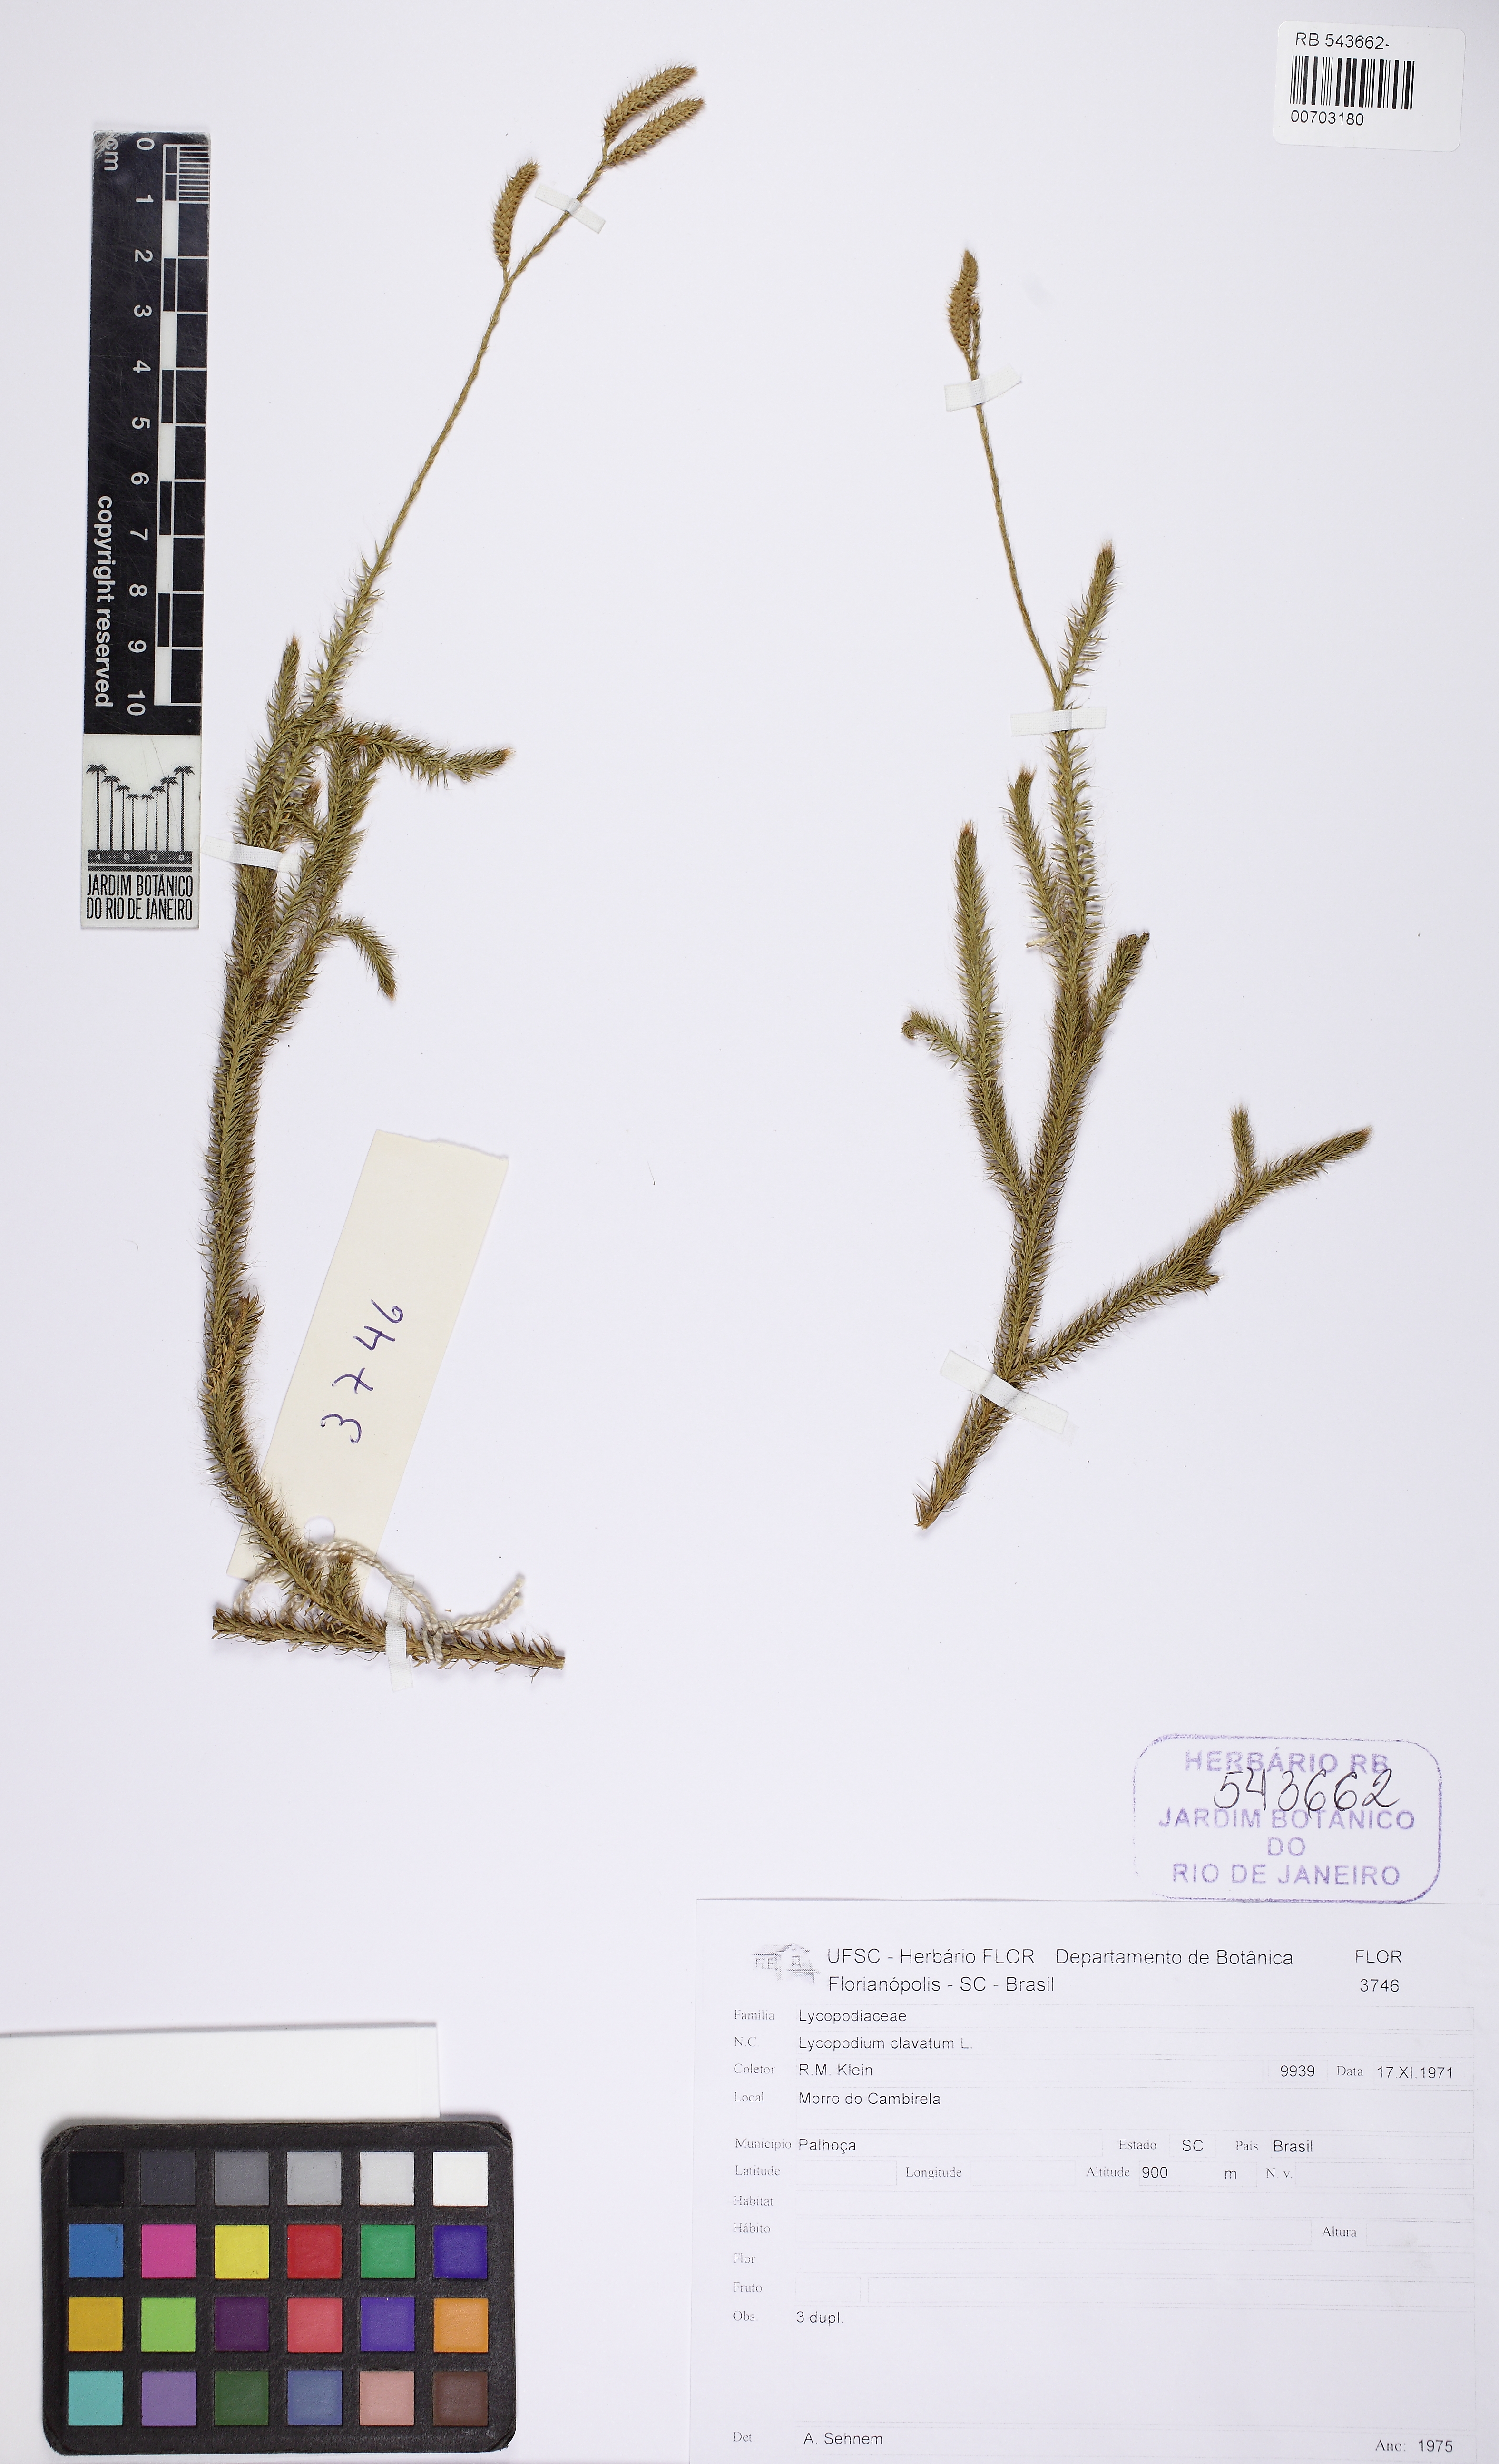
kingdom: Plantae
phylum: Tracheophyta
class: Lycopodiopsida
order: Lycopodiales
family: Lycopodiaceae
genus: Lycopodium
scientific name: Lycopodium clavatum
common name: Stag's-horn clubmoss
